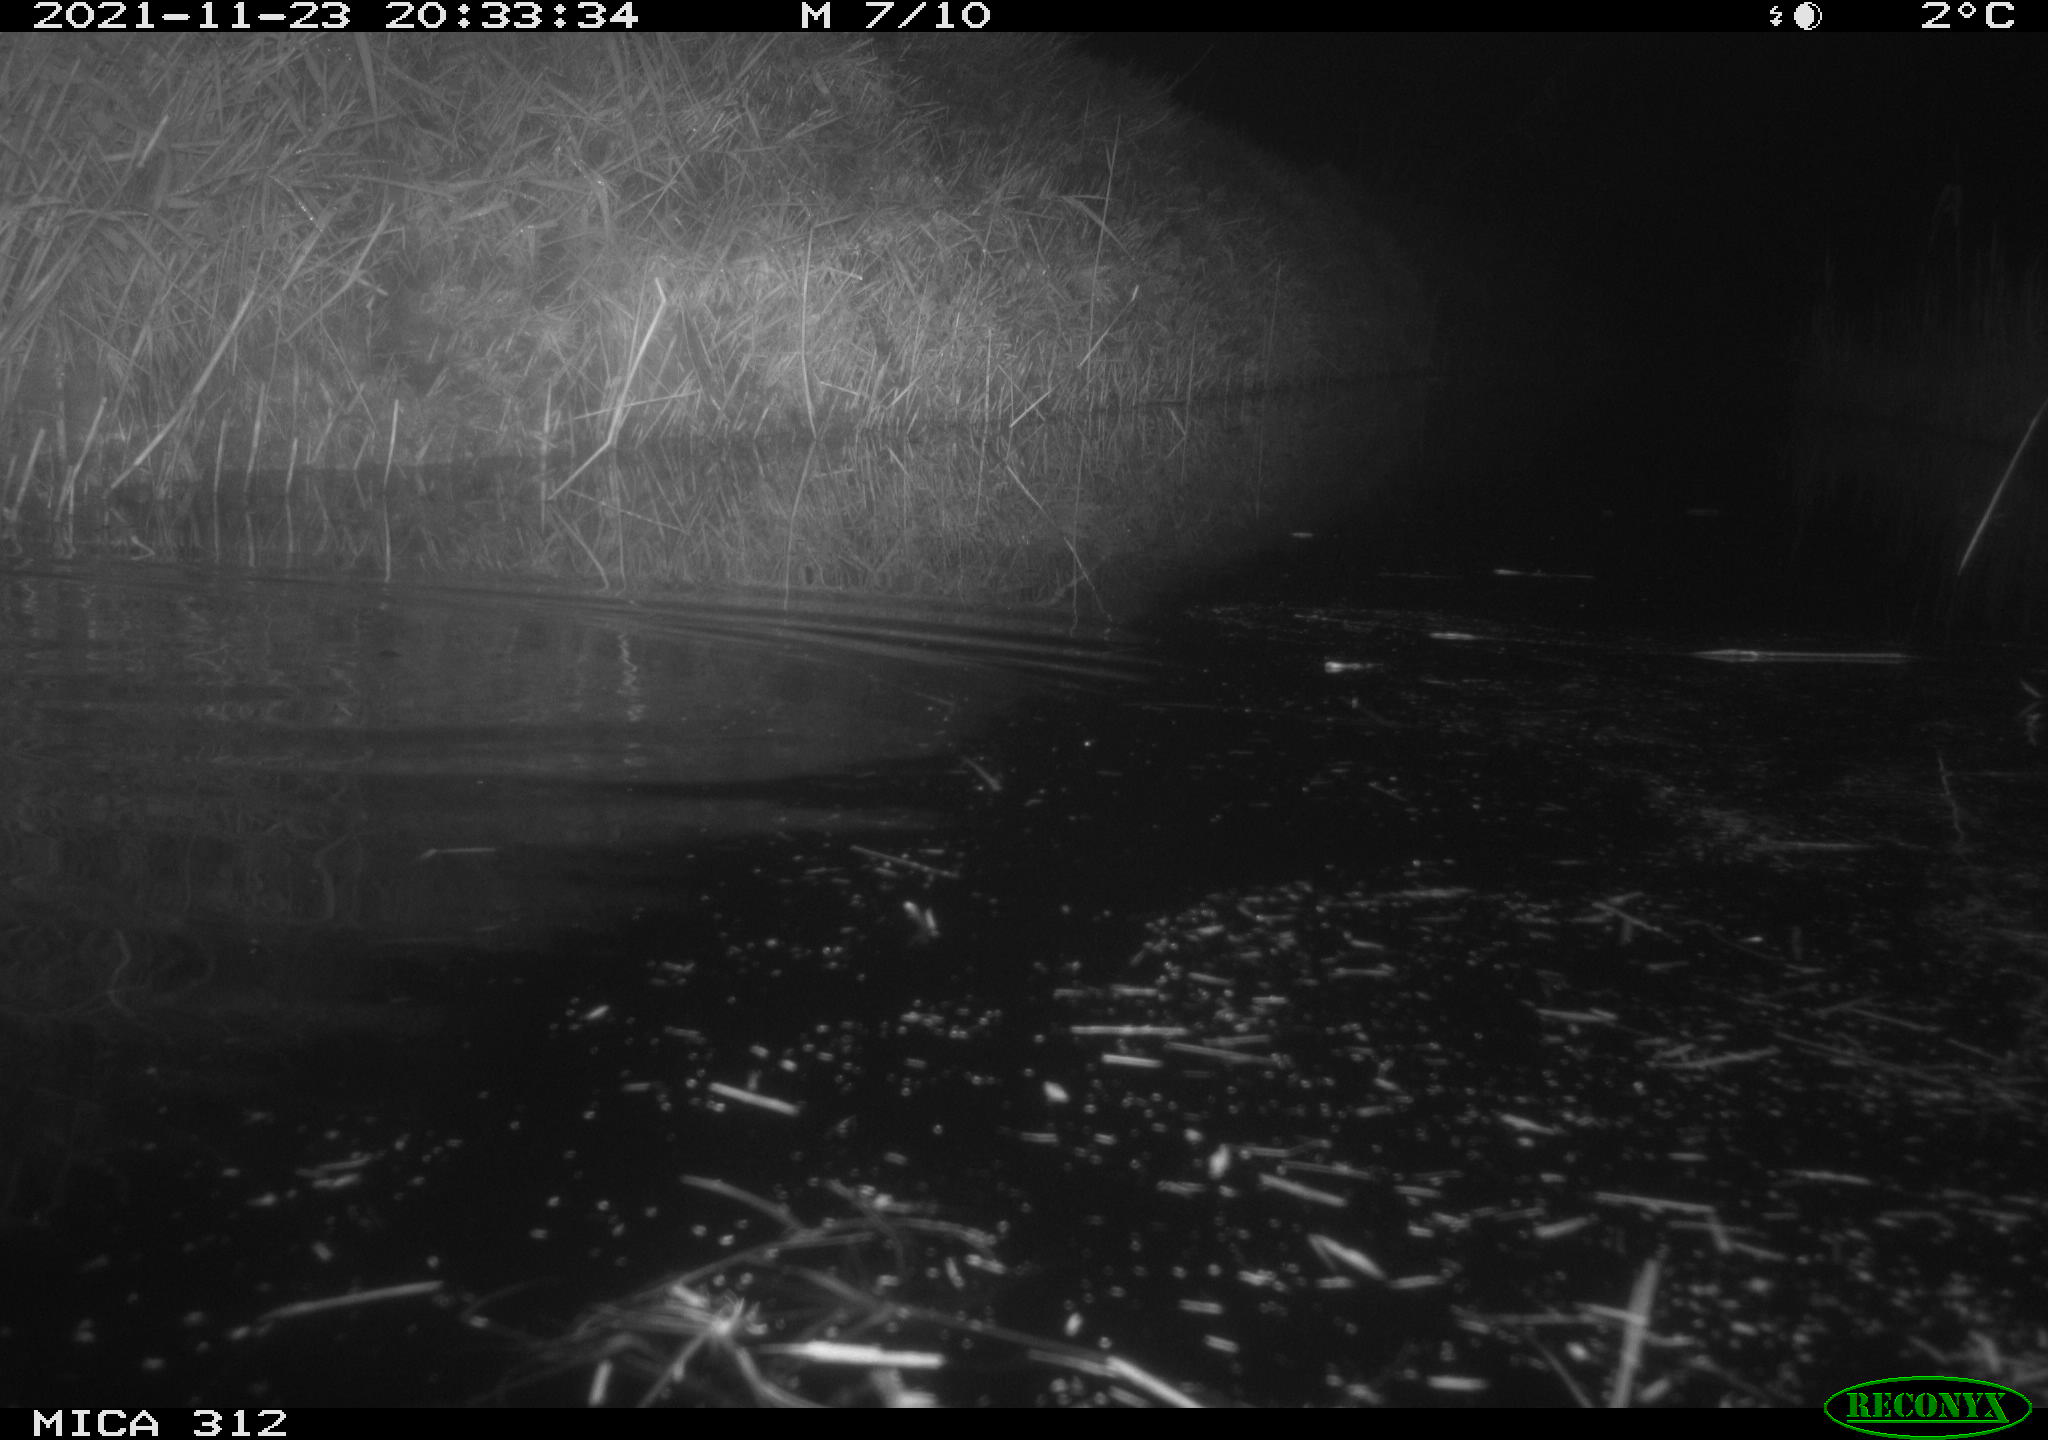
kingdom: Animalia
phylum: Chordata
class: Mammalia
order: Rodentia
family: Muridae
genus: Rattus
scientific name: Rattus norvegicus
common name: Brown rat
